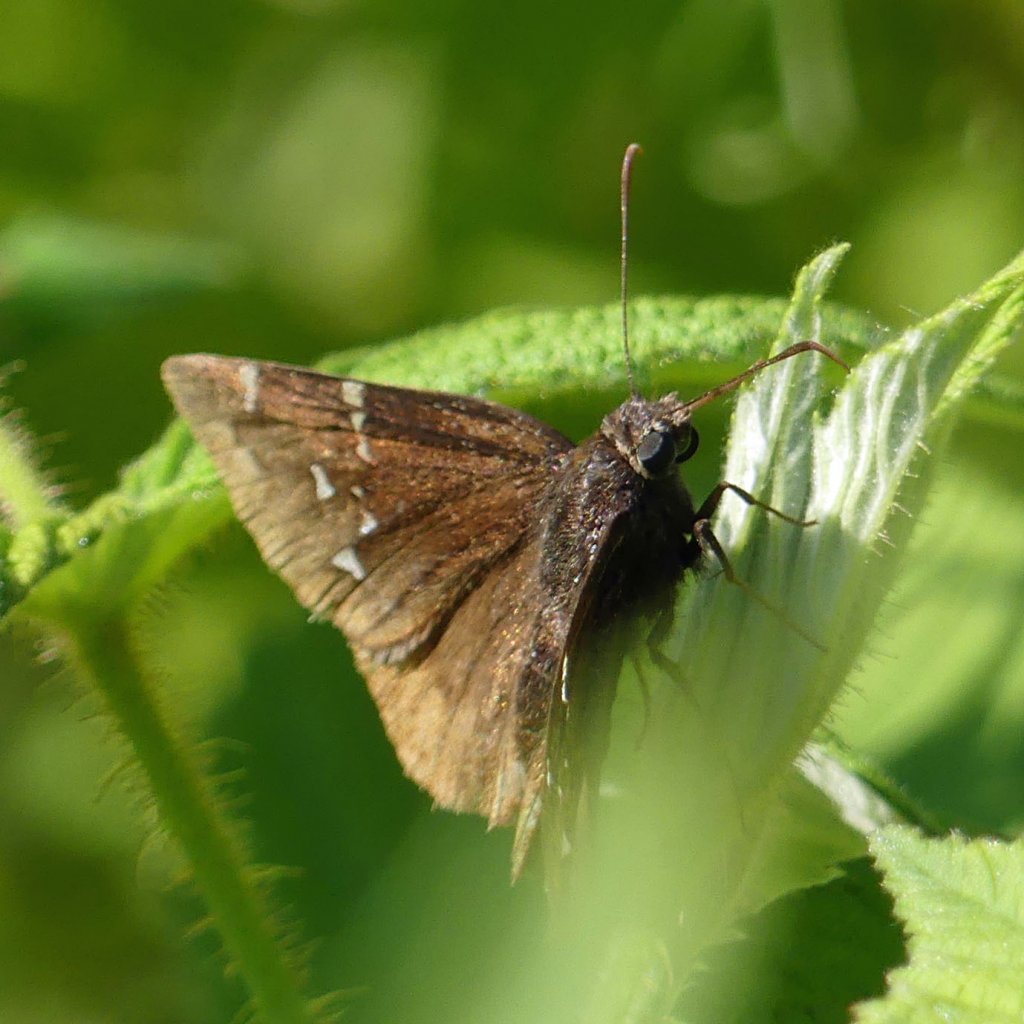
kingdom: Animalia
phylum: Arthropoda
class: Insecta
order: Lepidoptera
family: Hesperiidae
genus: Autochton
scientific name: Autochton
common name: Northern Cloudywing
